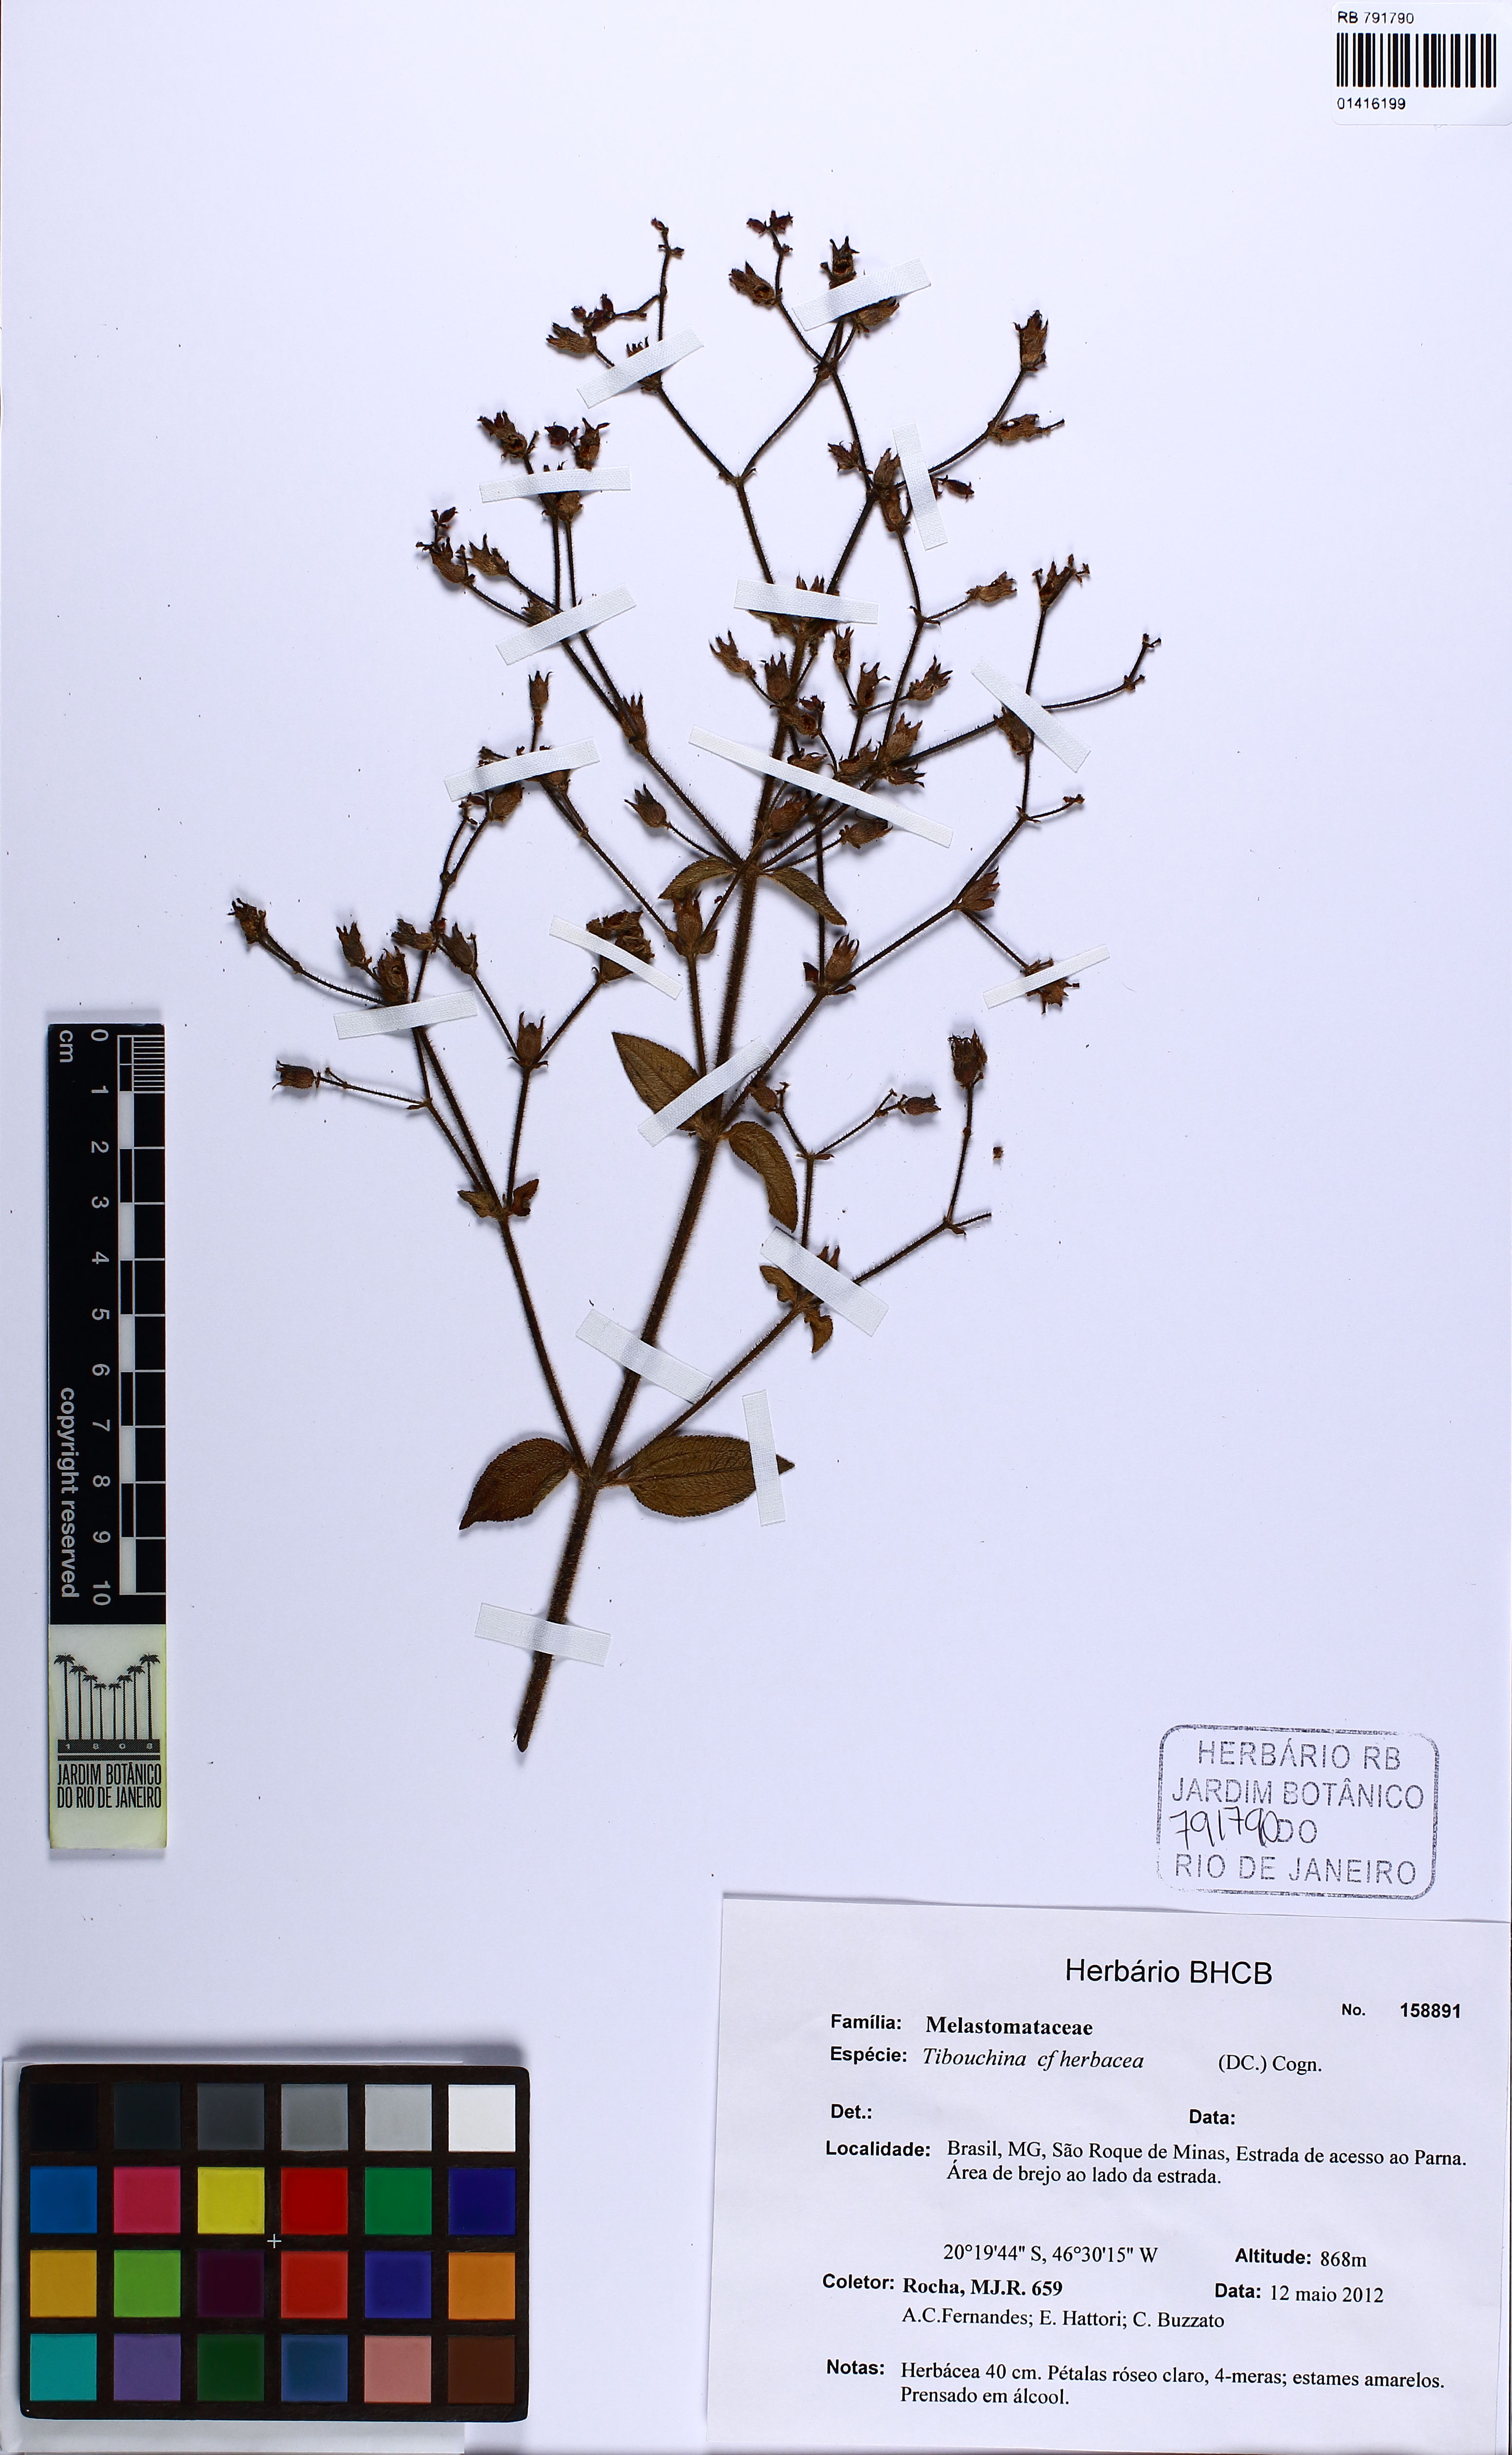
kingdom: Plantae
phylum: Tracheophyta
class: Magnoliopsida
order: Myrtales
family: Melastomataceae
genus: Chaetogastra
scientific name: Chaetogastra herbacea
